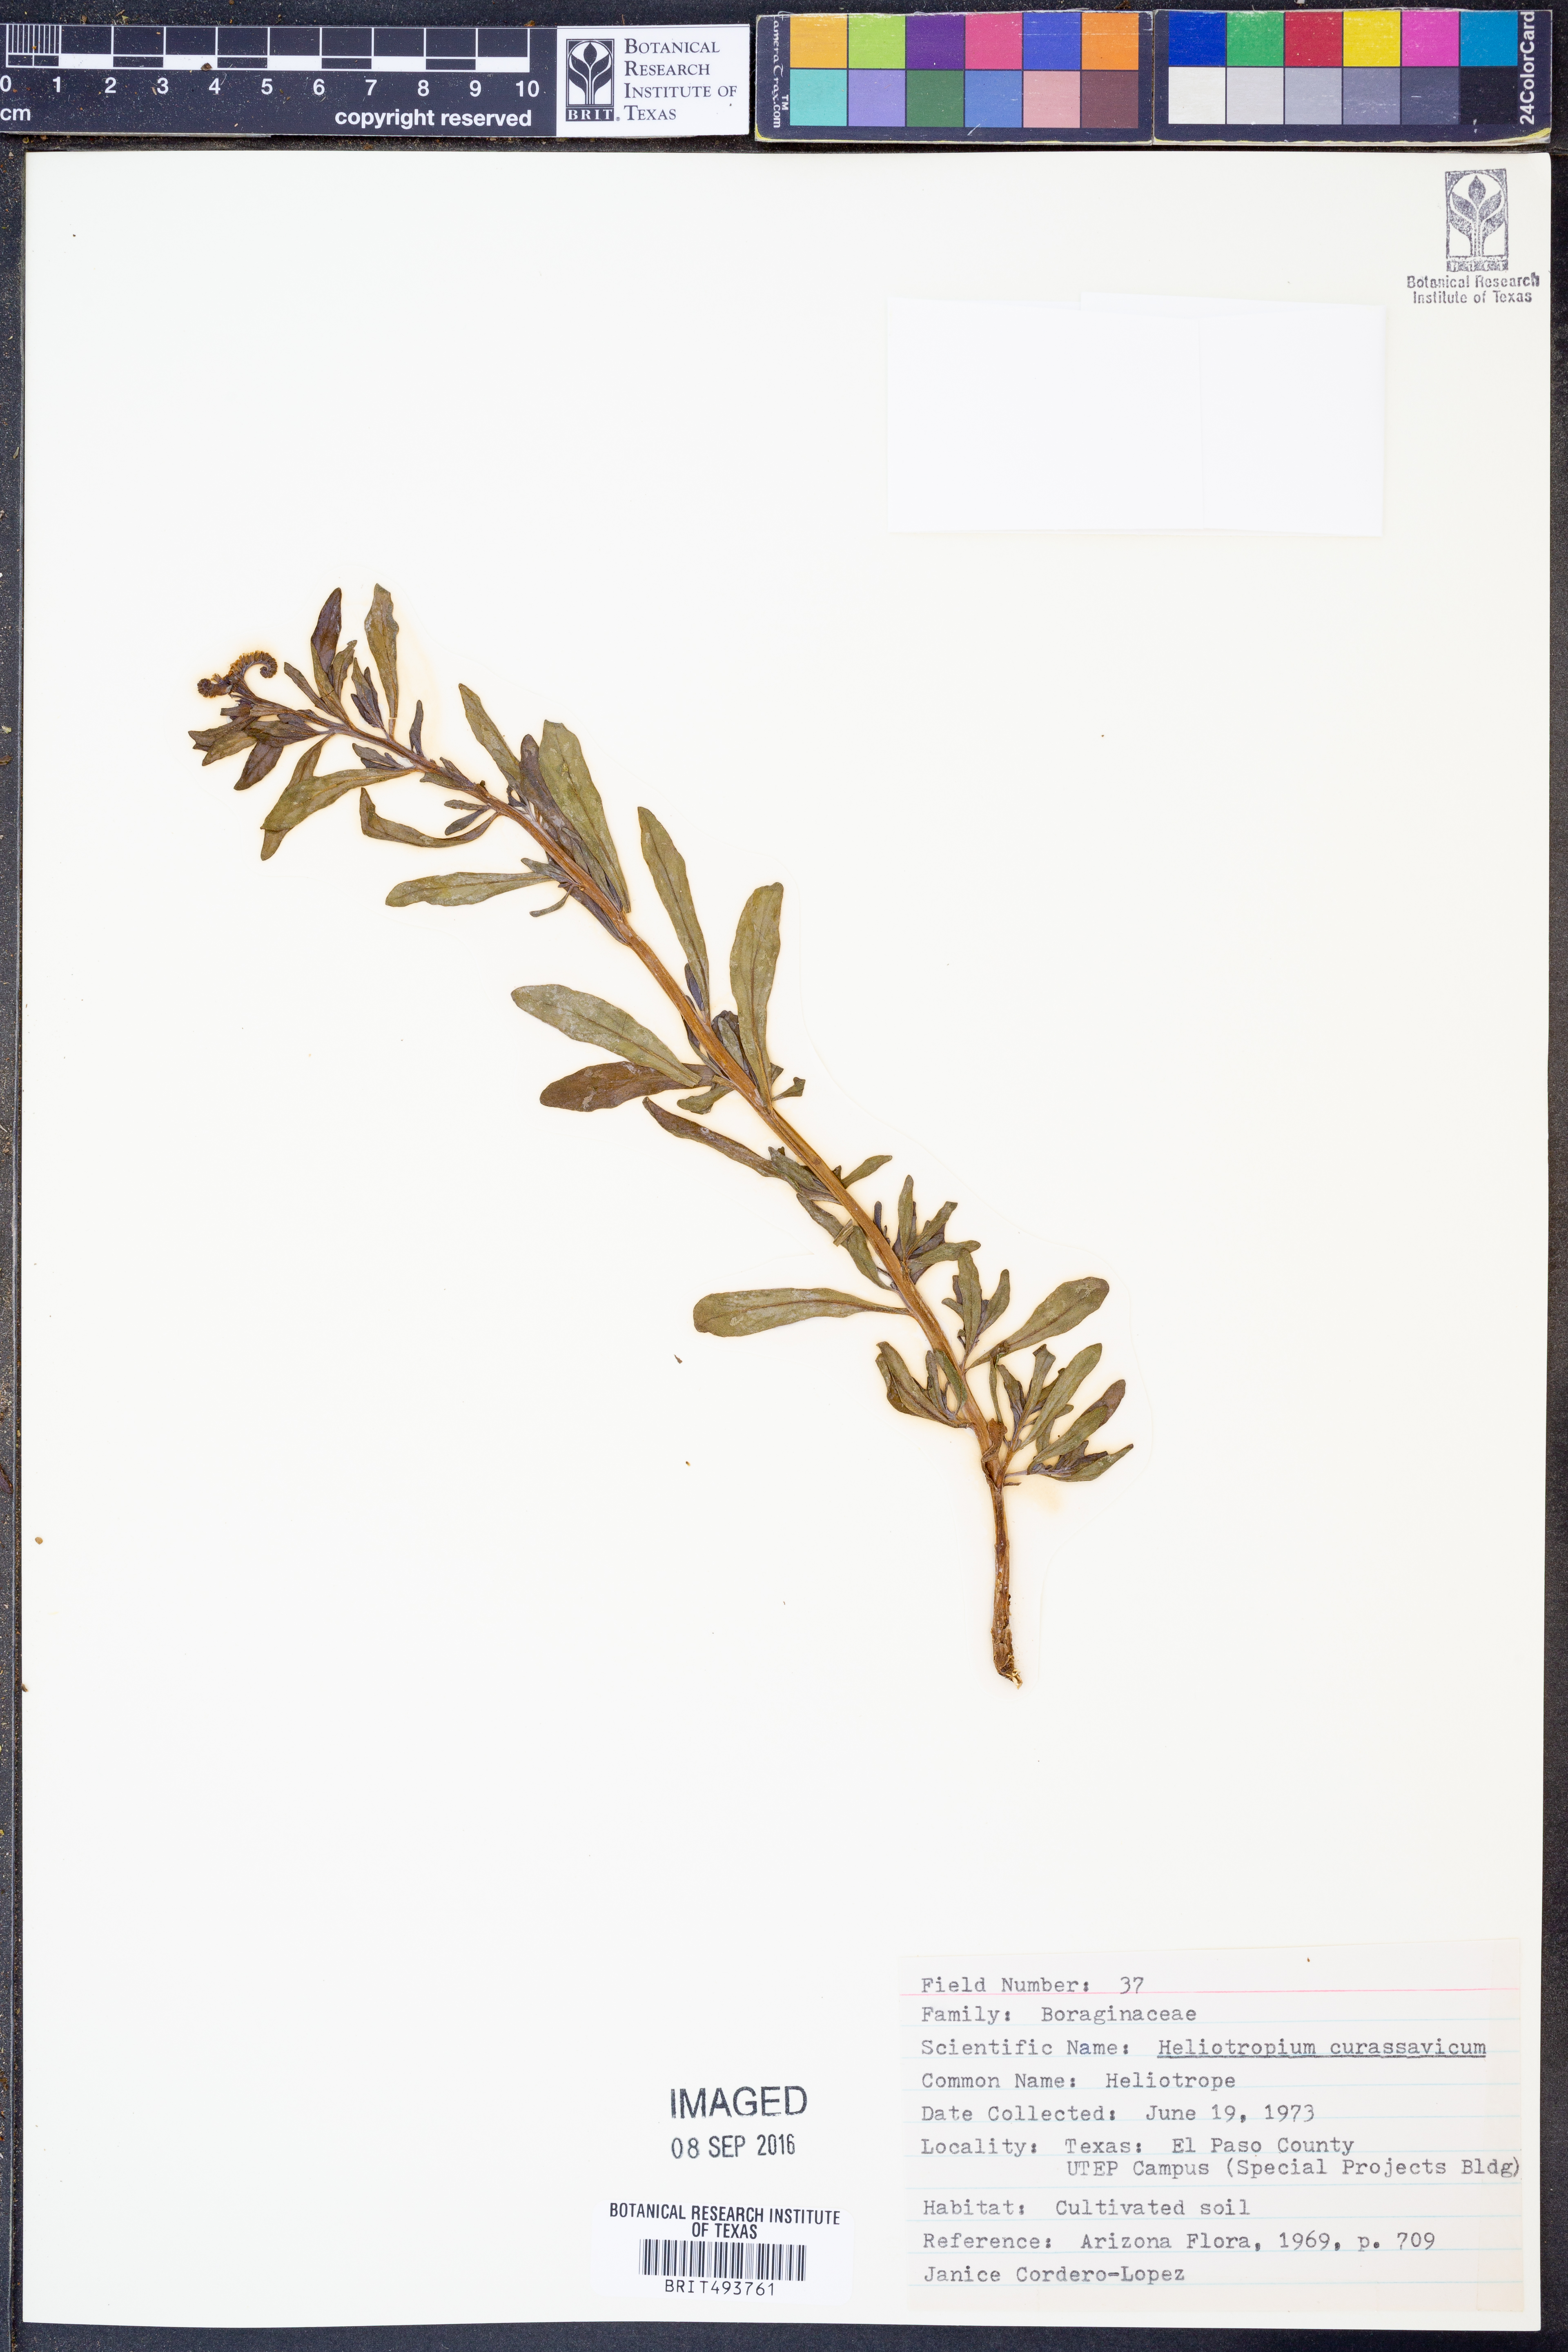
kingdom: Plantae
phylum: Tracheophyta
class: Magnoliopsida
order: Boraginales
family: Heliotropiaceae
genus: Heliotropium
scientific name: Heliotropium curassavicum
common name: Seaside heliotrope
